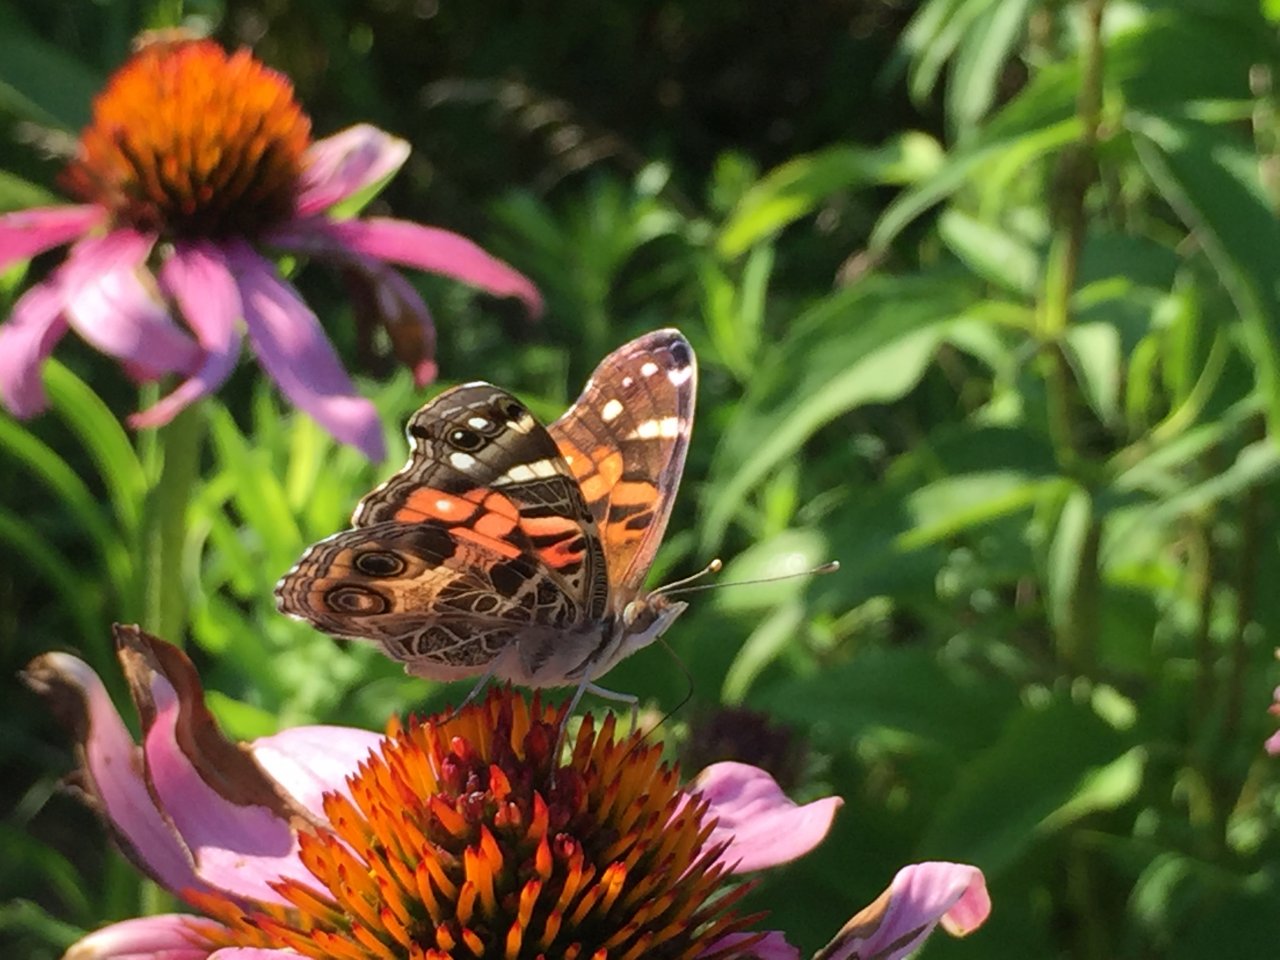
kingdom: Animalia
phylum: Arthropoda
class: Insecta
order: Lepidoptera
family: Nymphalidae
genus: Vanessa
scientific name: Vanessa virginiensis
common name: American Lady
